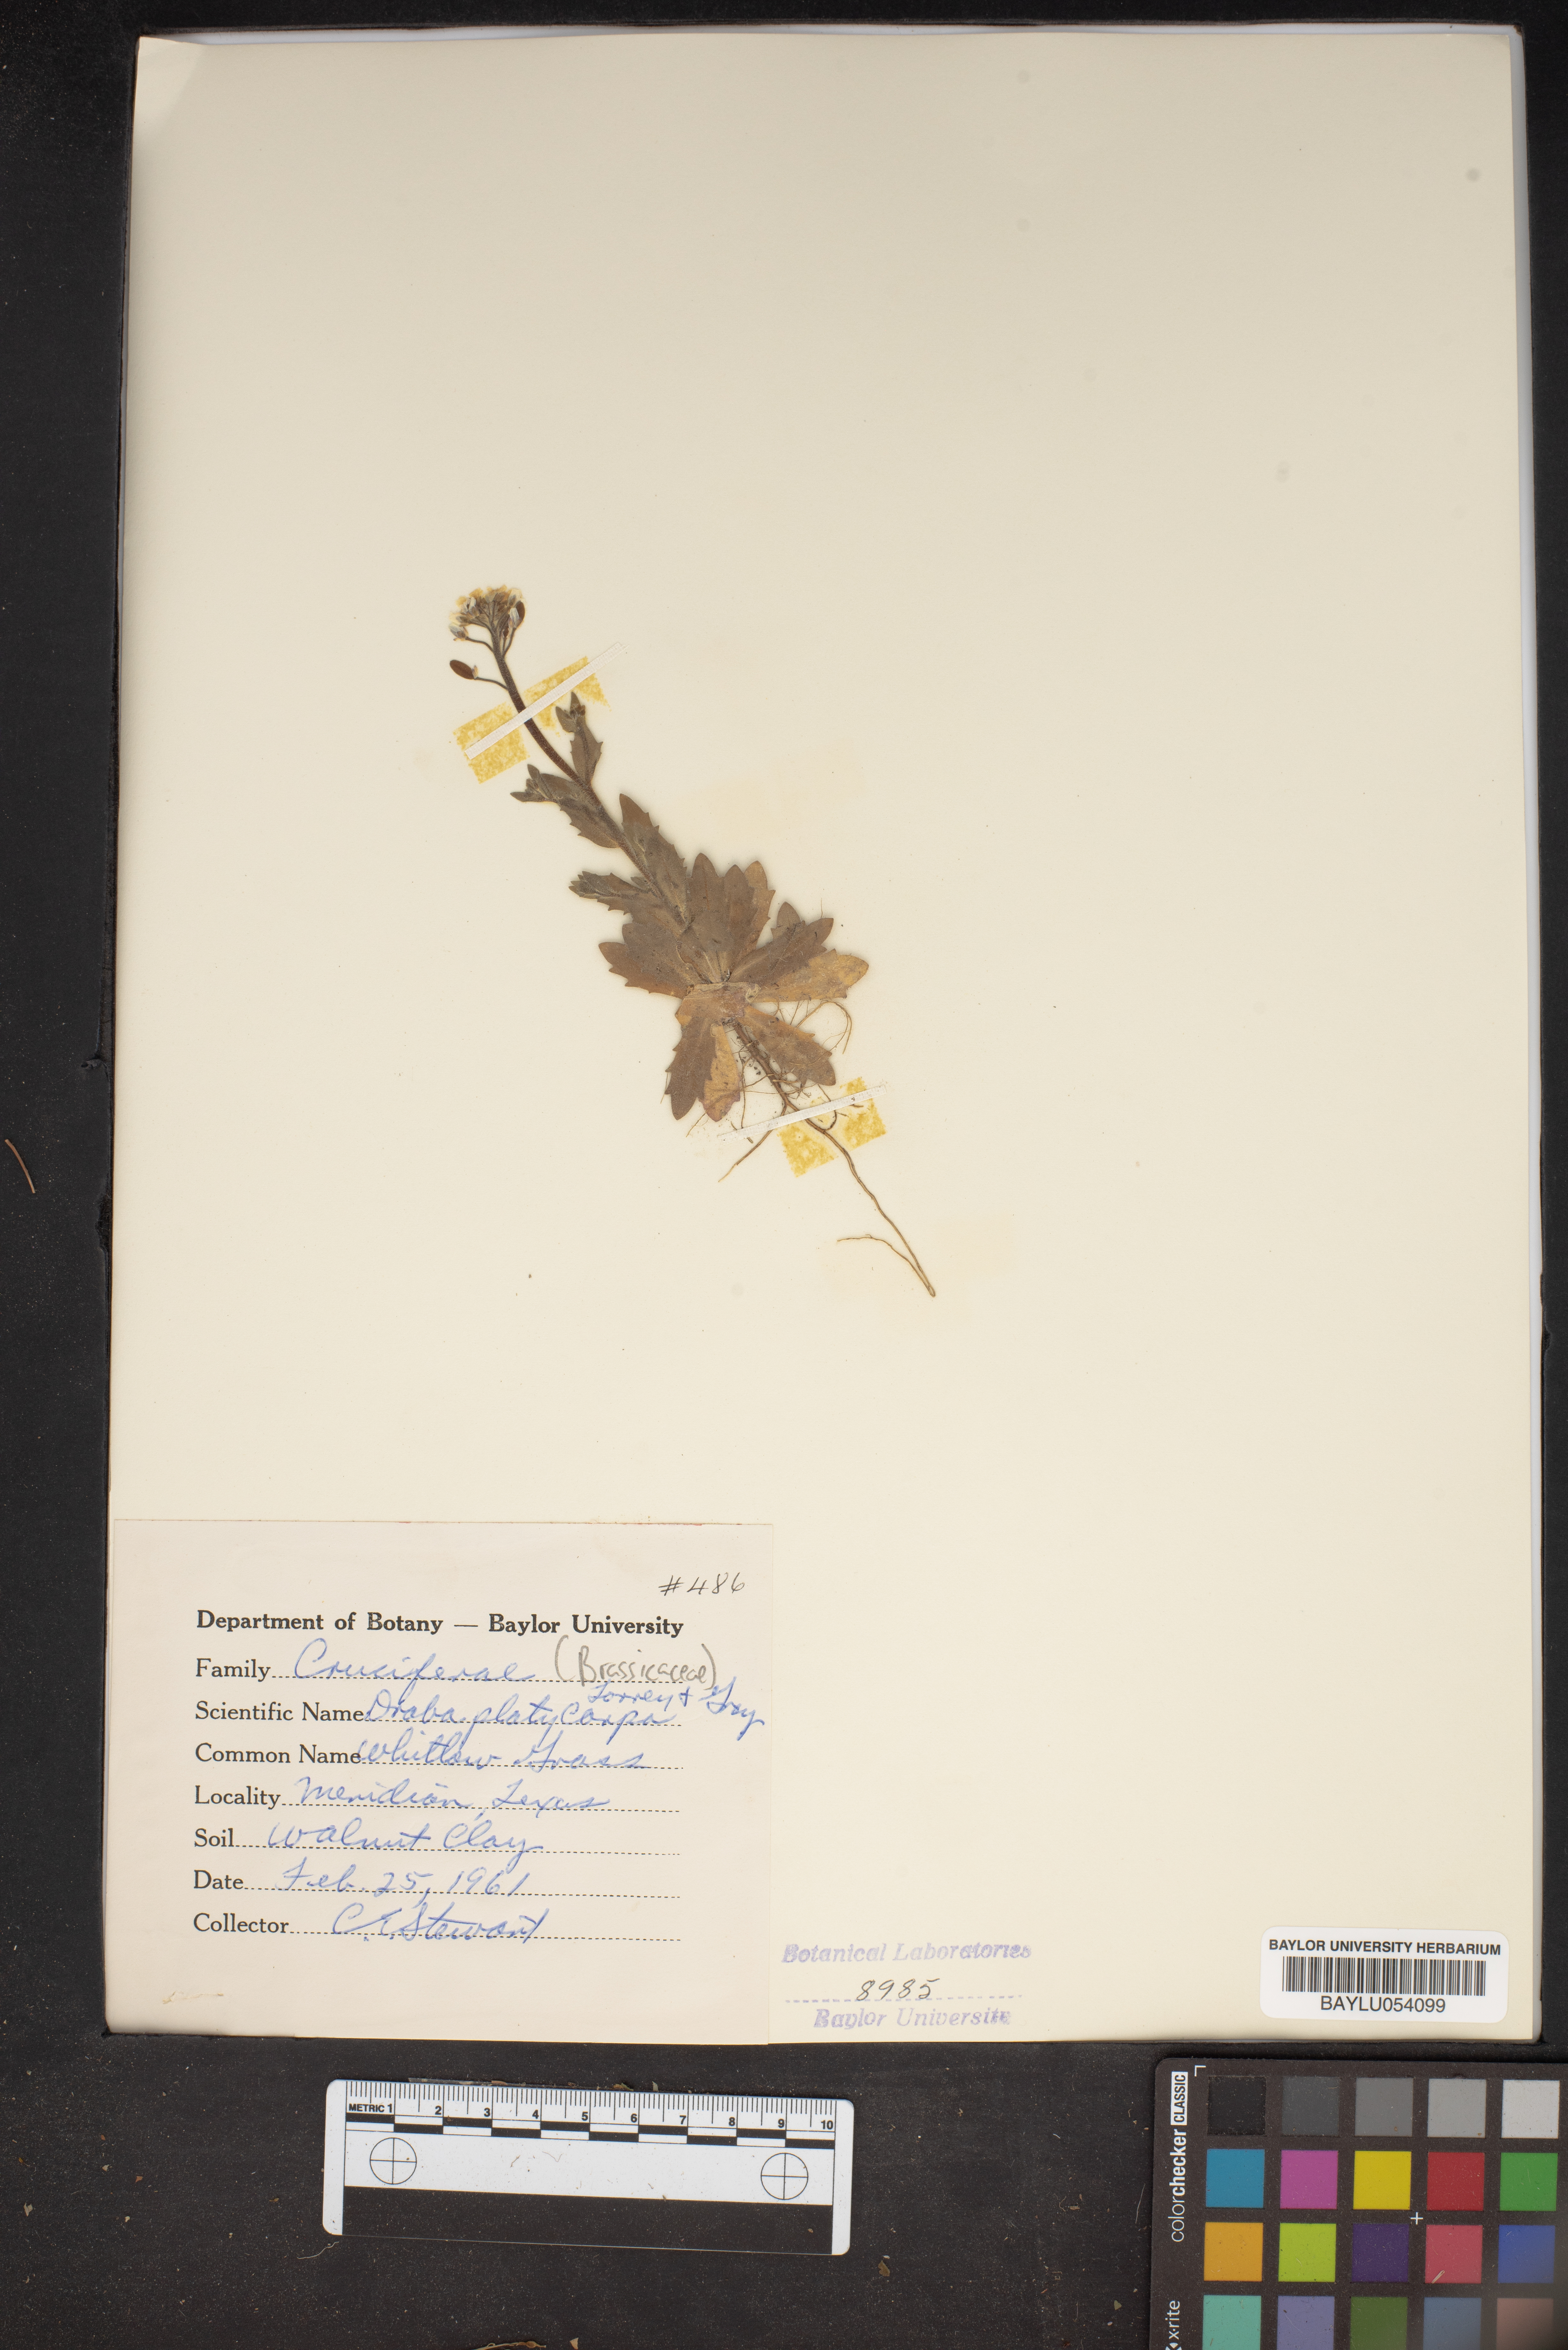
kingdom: Plantae
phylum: Tracheophyta
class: Magnoliopsida
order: Brassicales
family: Brassicaceae
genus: Tomostima
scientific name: Tomostima platycarpa
